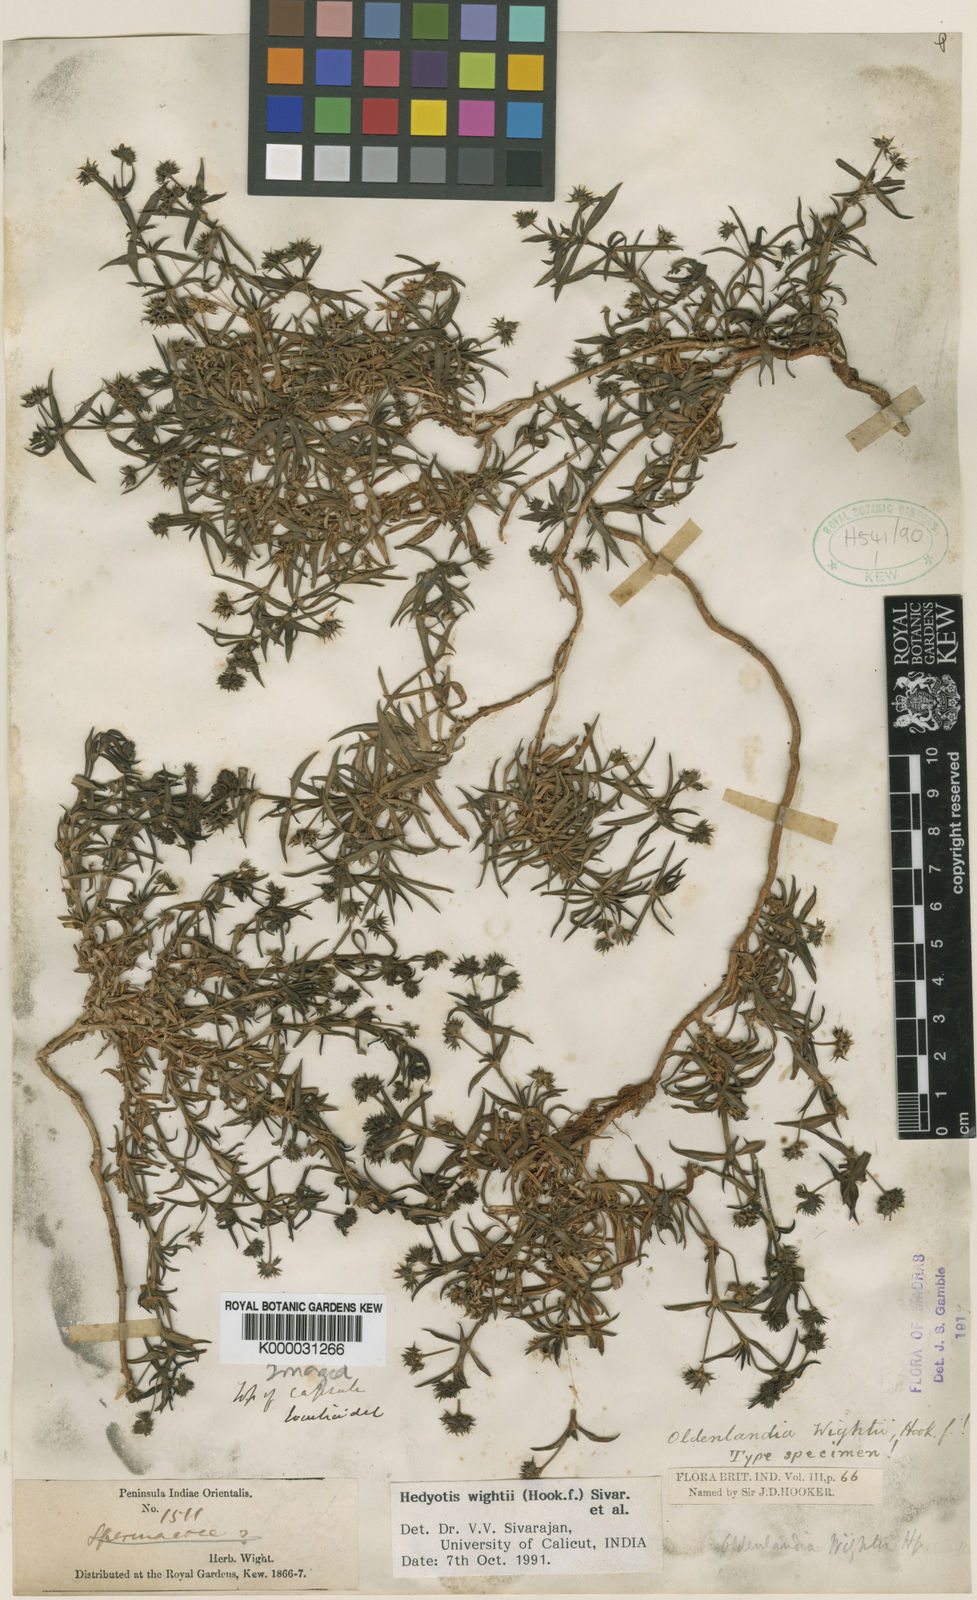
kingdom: Plantae
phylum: Tracheophyta
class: Magnoliopsida
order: Gentianales
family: Rubiaceae
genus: Oldenlandia
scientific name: Oldenlandia umbellata
